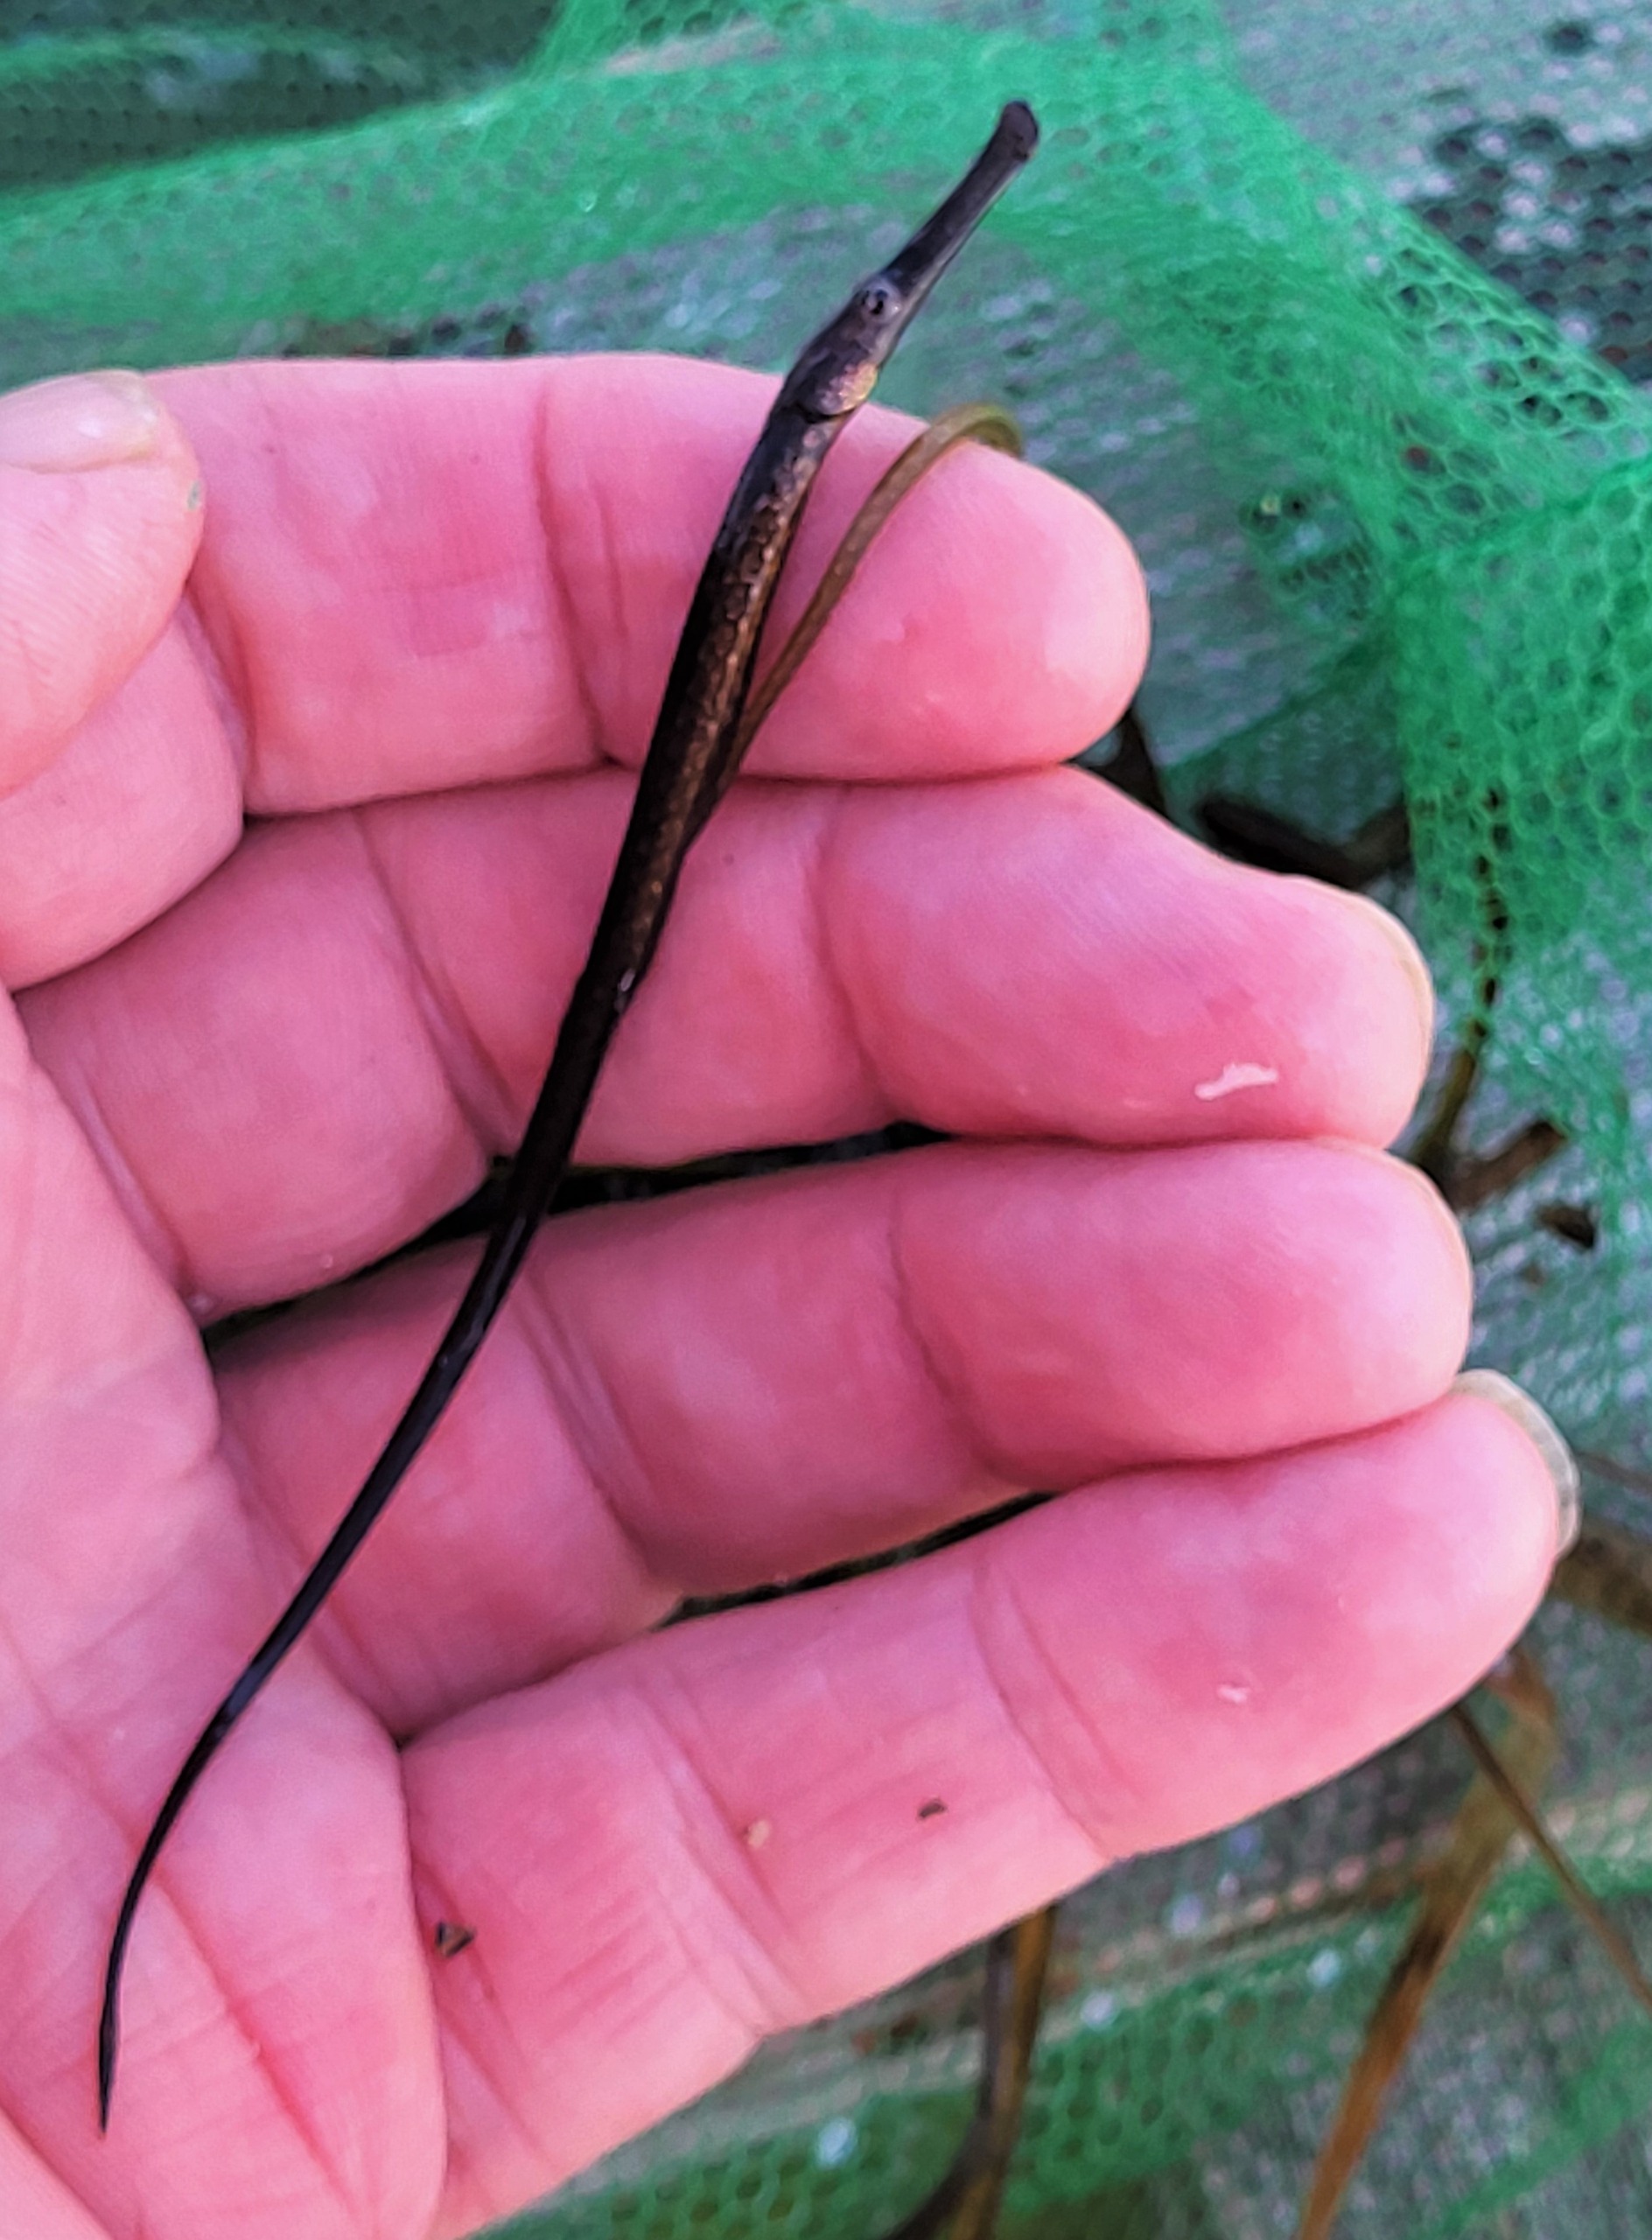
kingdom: Animalia
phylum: Chordata
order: Syngnathiformes
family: Syngnathidae
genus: Syngnathus
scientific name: Syngnathus typhle
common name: Almindelig tangnål
